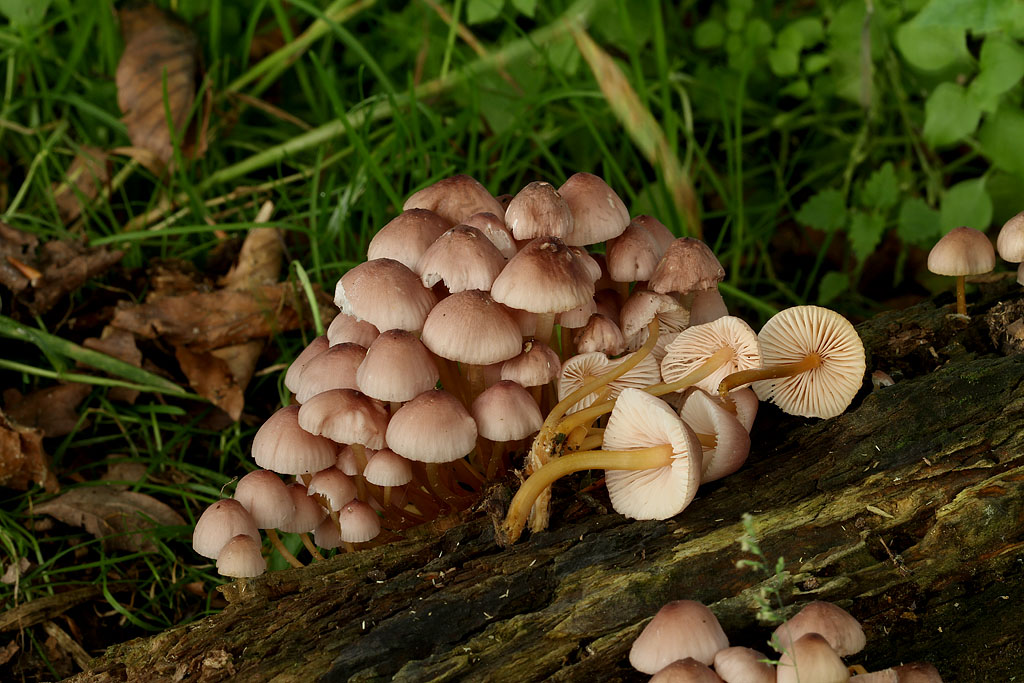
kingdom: Fungi
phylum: Basidiomycota
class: Agaricomycetes
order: Agaricales
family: Mycenaceae
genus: Mycena
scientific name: Mycena renati
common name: smuk huesvamp
